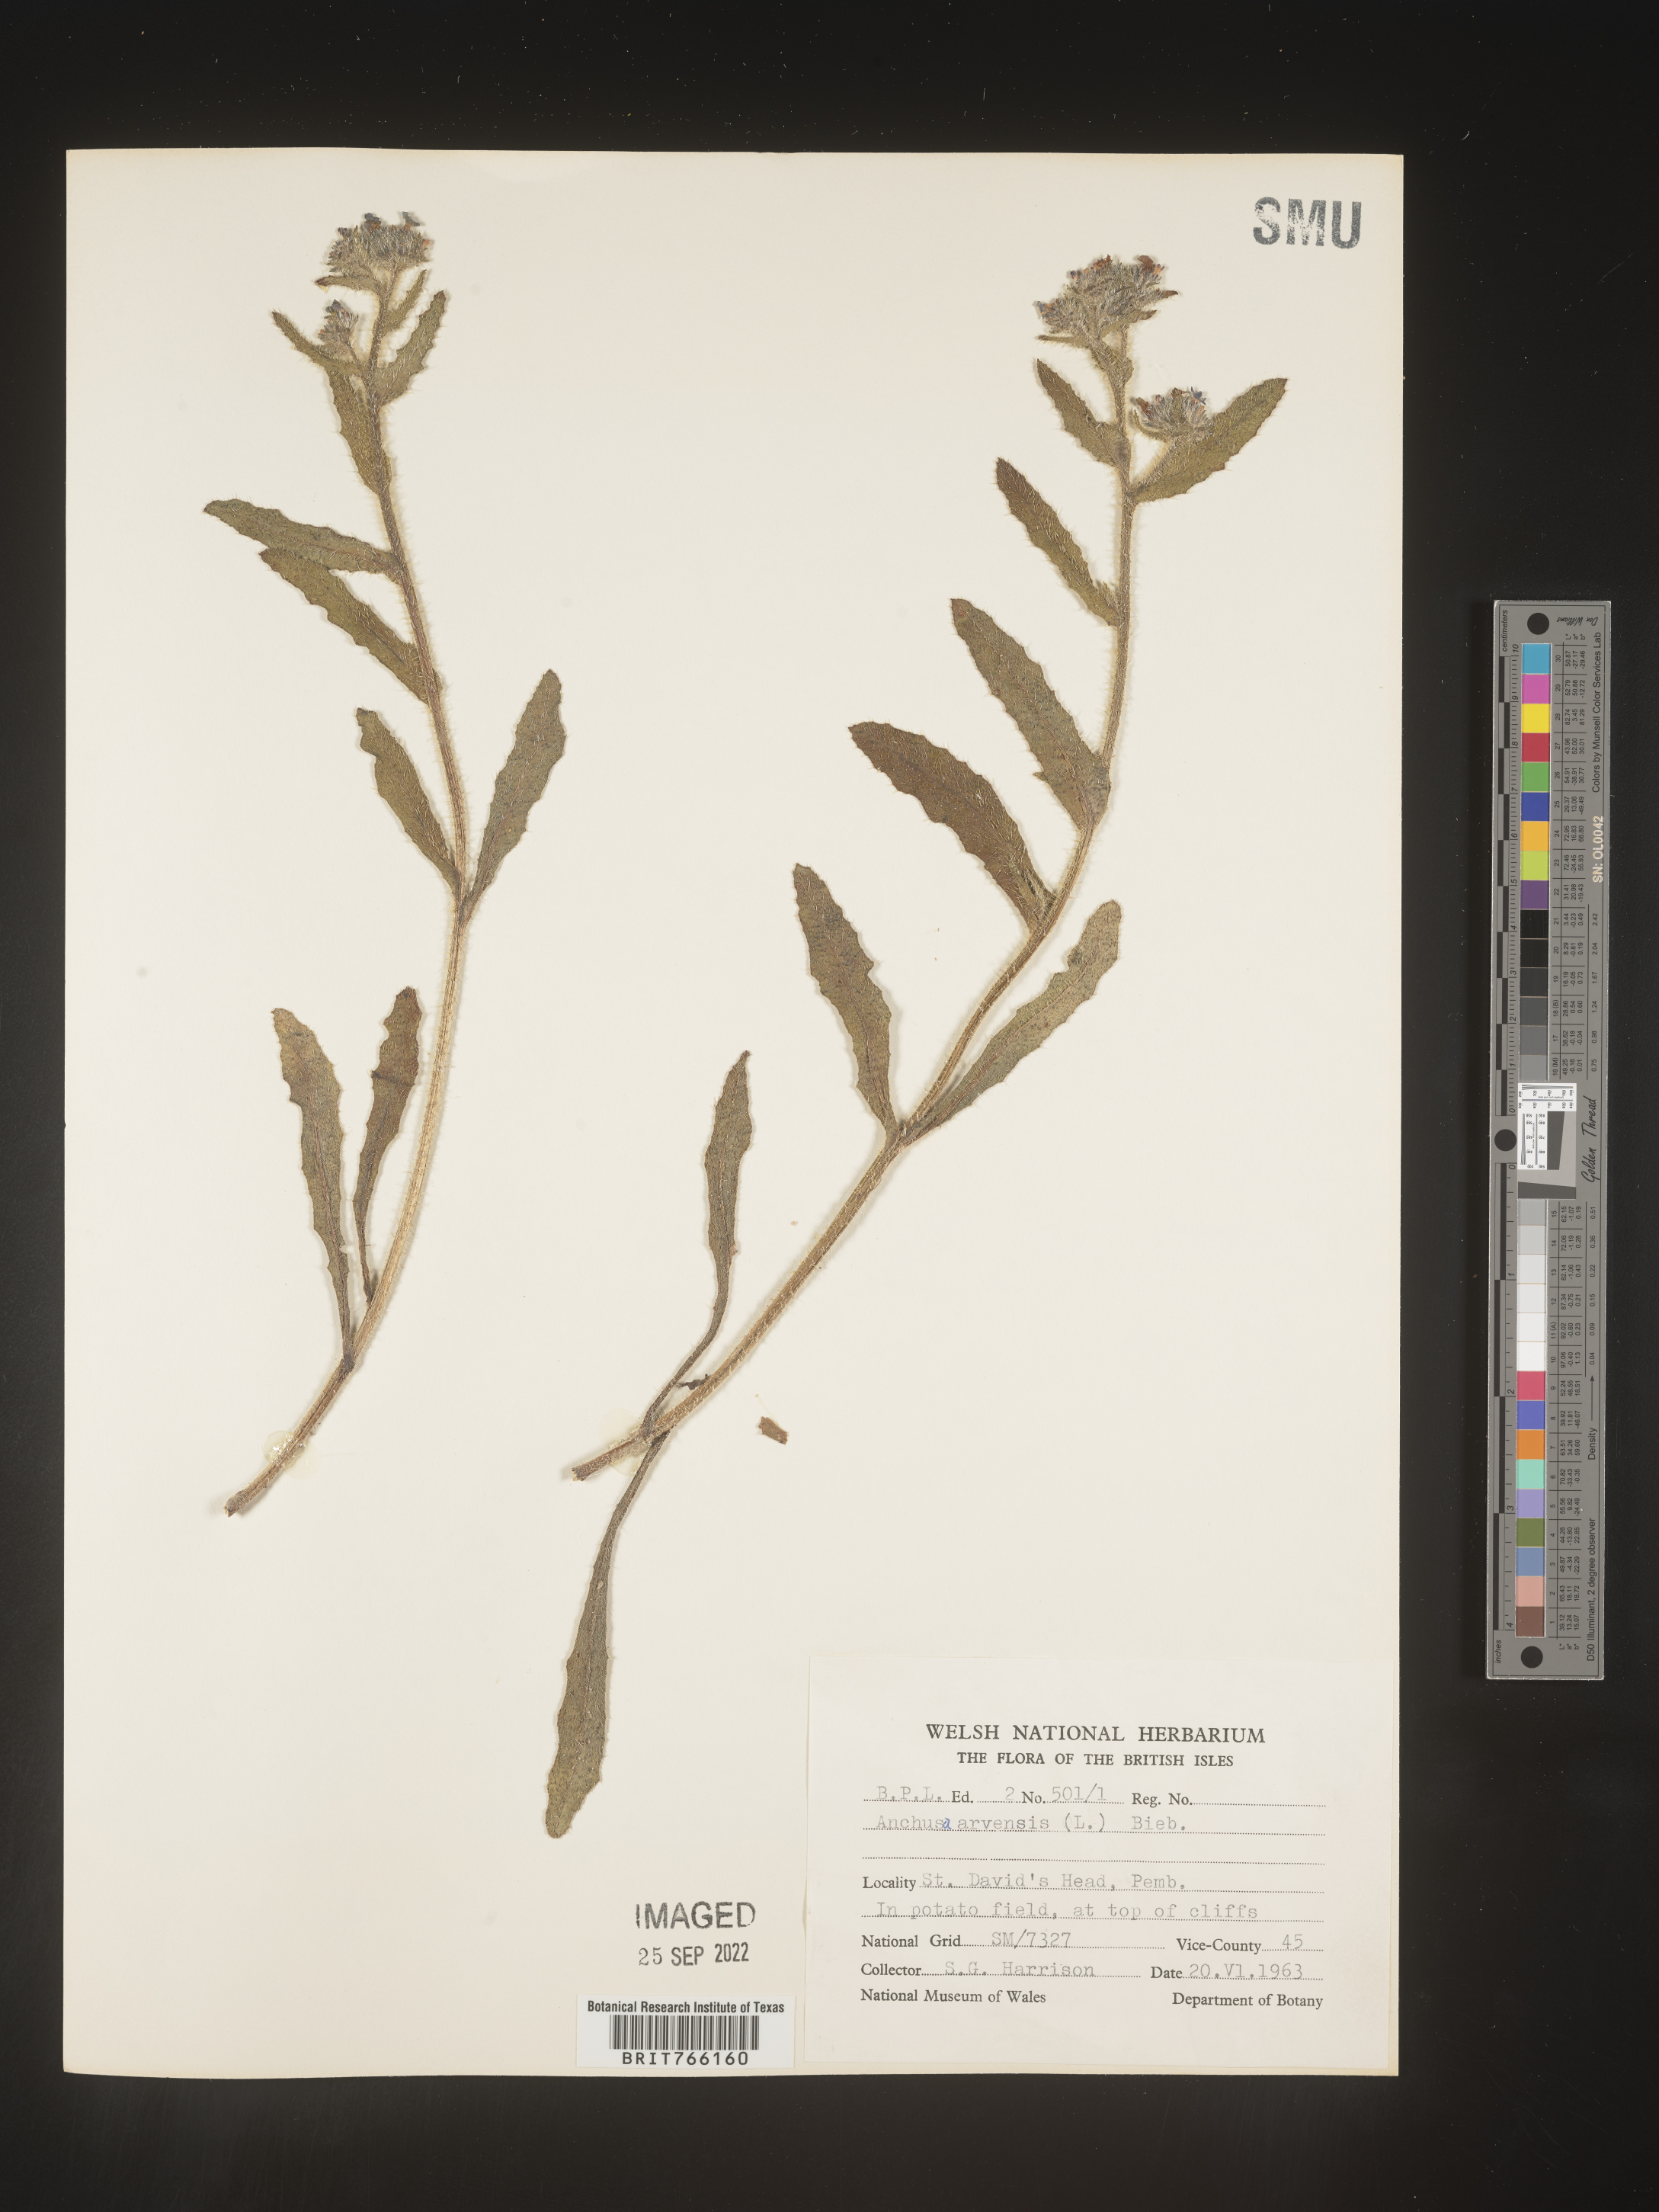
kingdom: Plantae
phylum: Tracheophyta
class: Magnoliopsida
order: Boraginales
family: Boraginaceae
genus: Anchusa
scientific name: Anchusa
